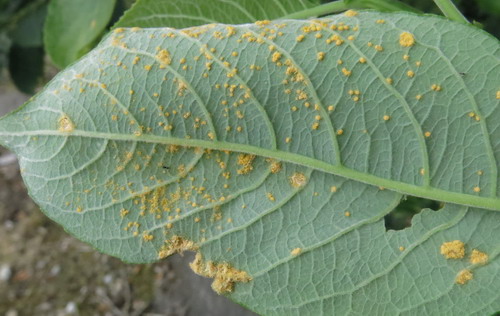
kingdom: Fungi
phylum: Basidiomycota
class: Pucciniomycetes
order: Pucciniales
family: Melampsoraceae
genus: Melampsora
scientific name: Melampsora epitea
